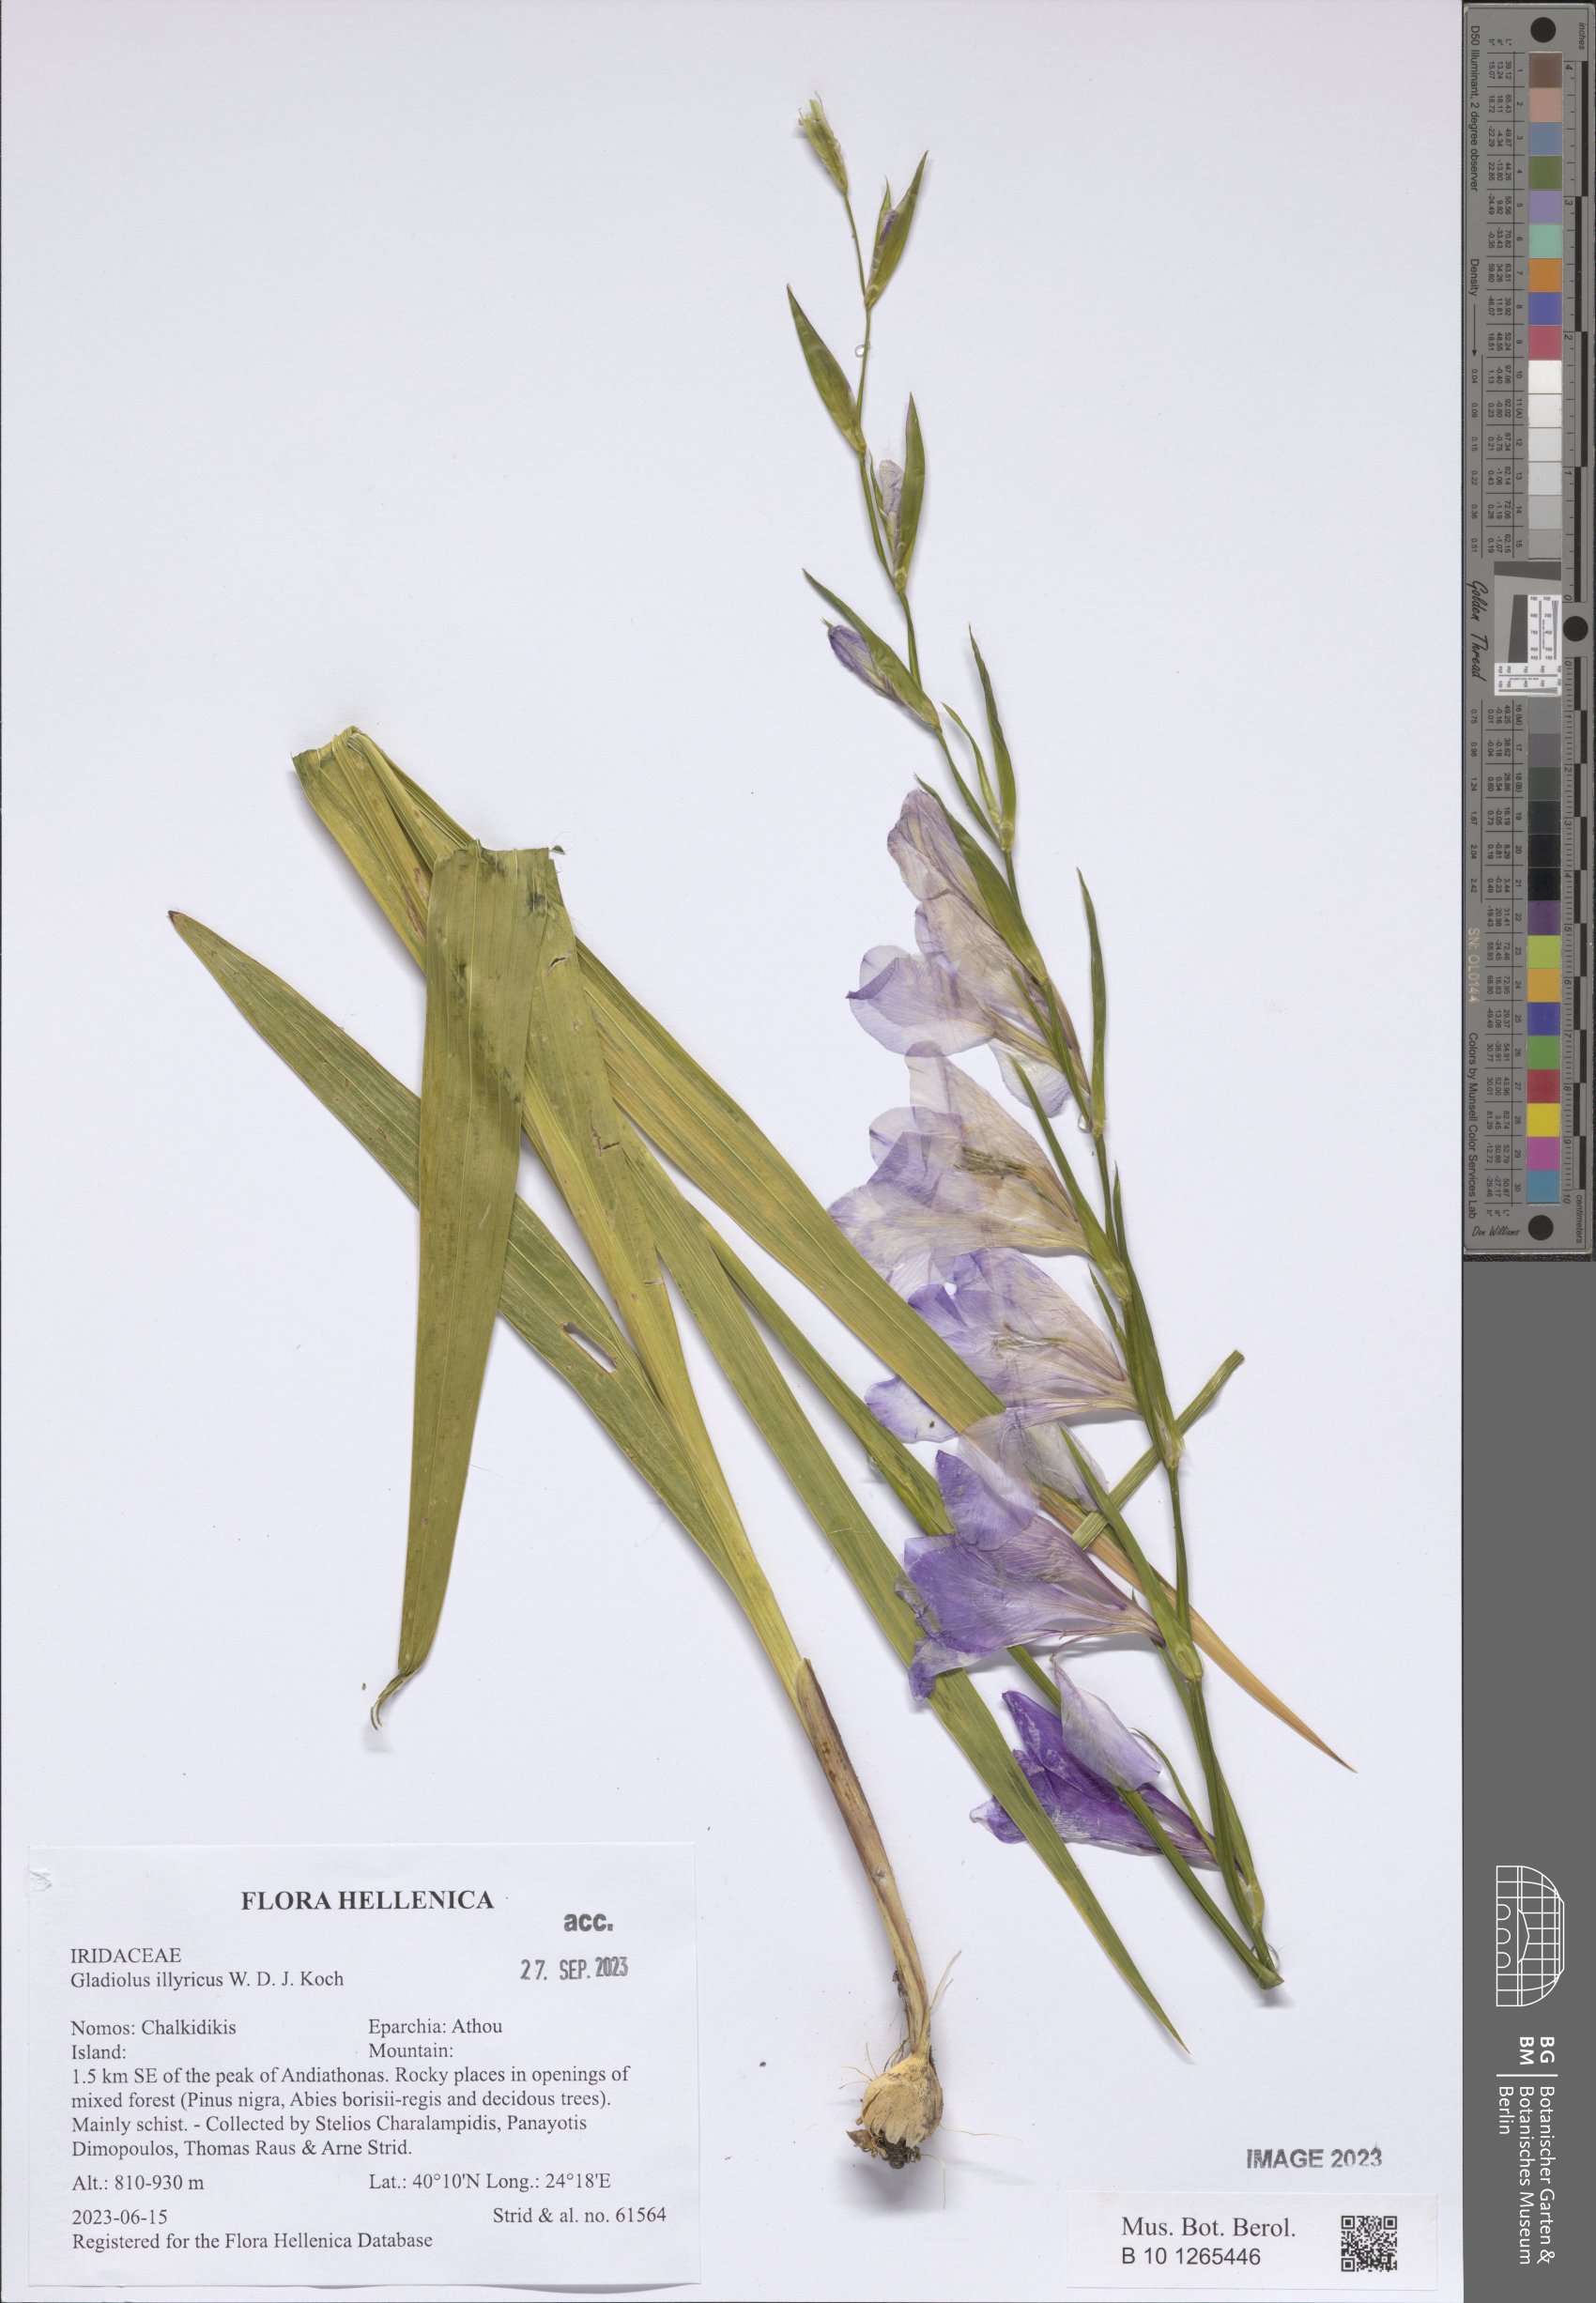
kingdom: Plantae
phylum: Tracheophyta
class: Liliopsida
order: Asparagales
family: Iridaceae
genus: Gladiolus
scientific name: Gladiolus illyricus
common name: Wild gladiolus
